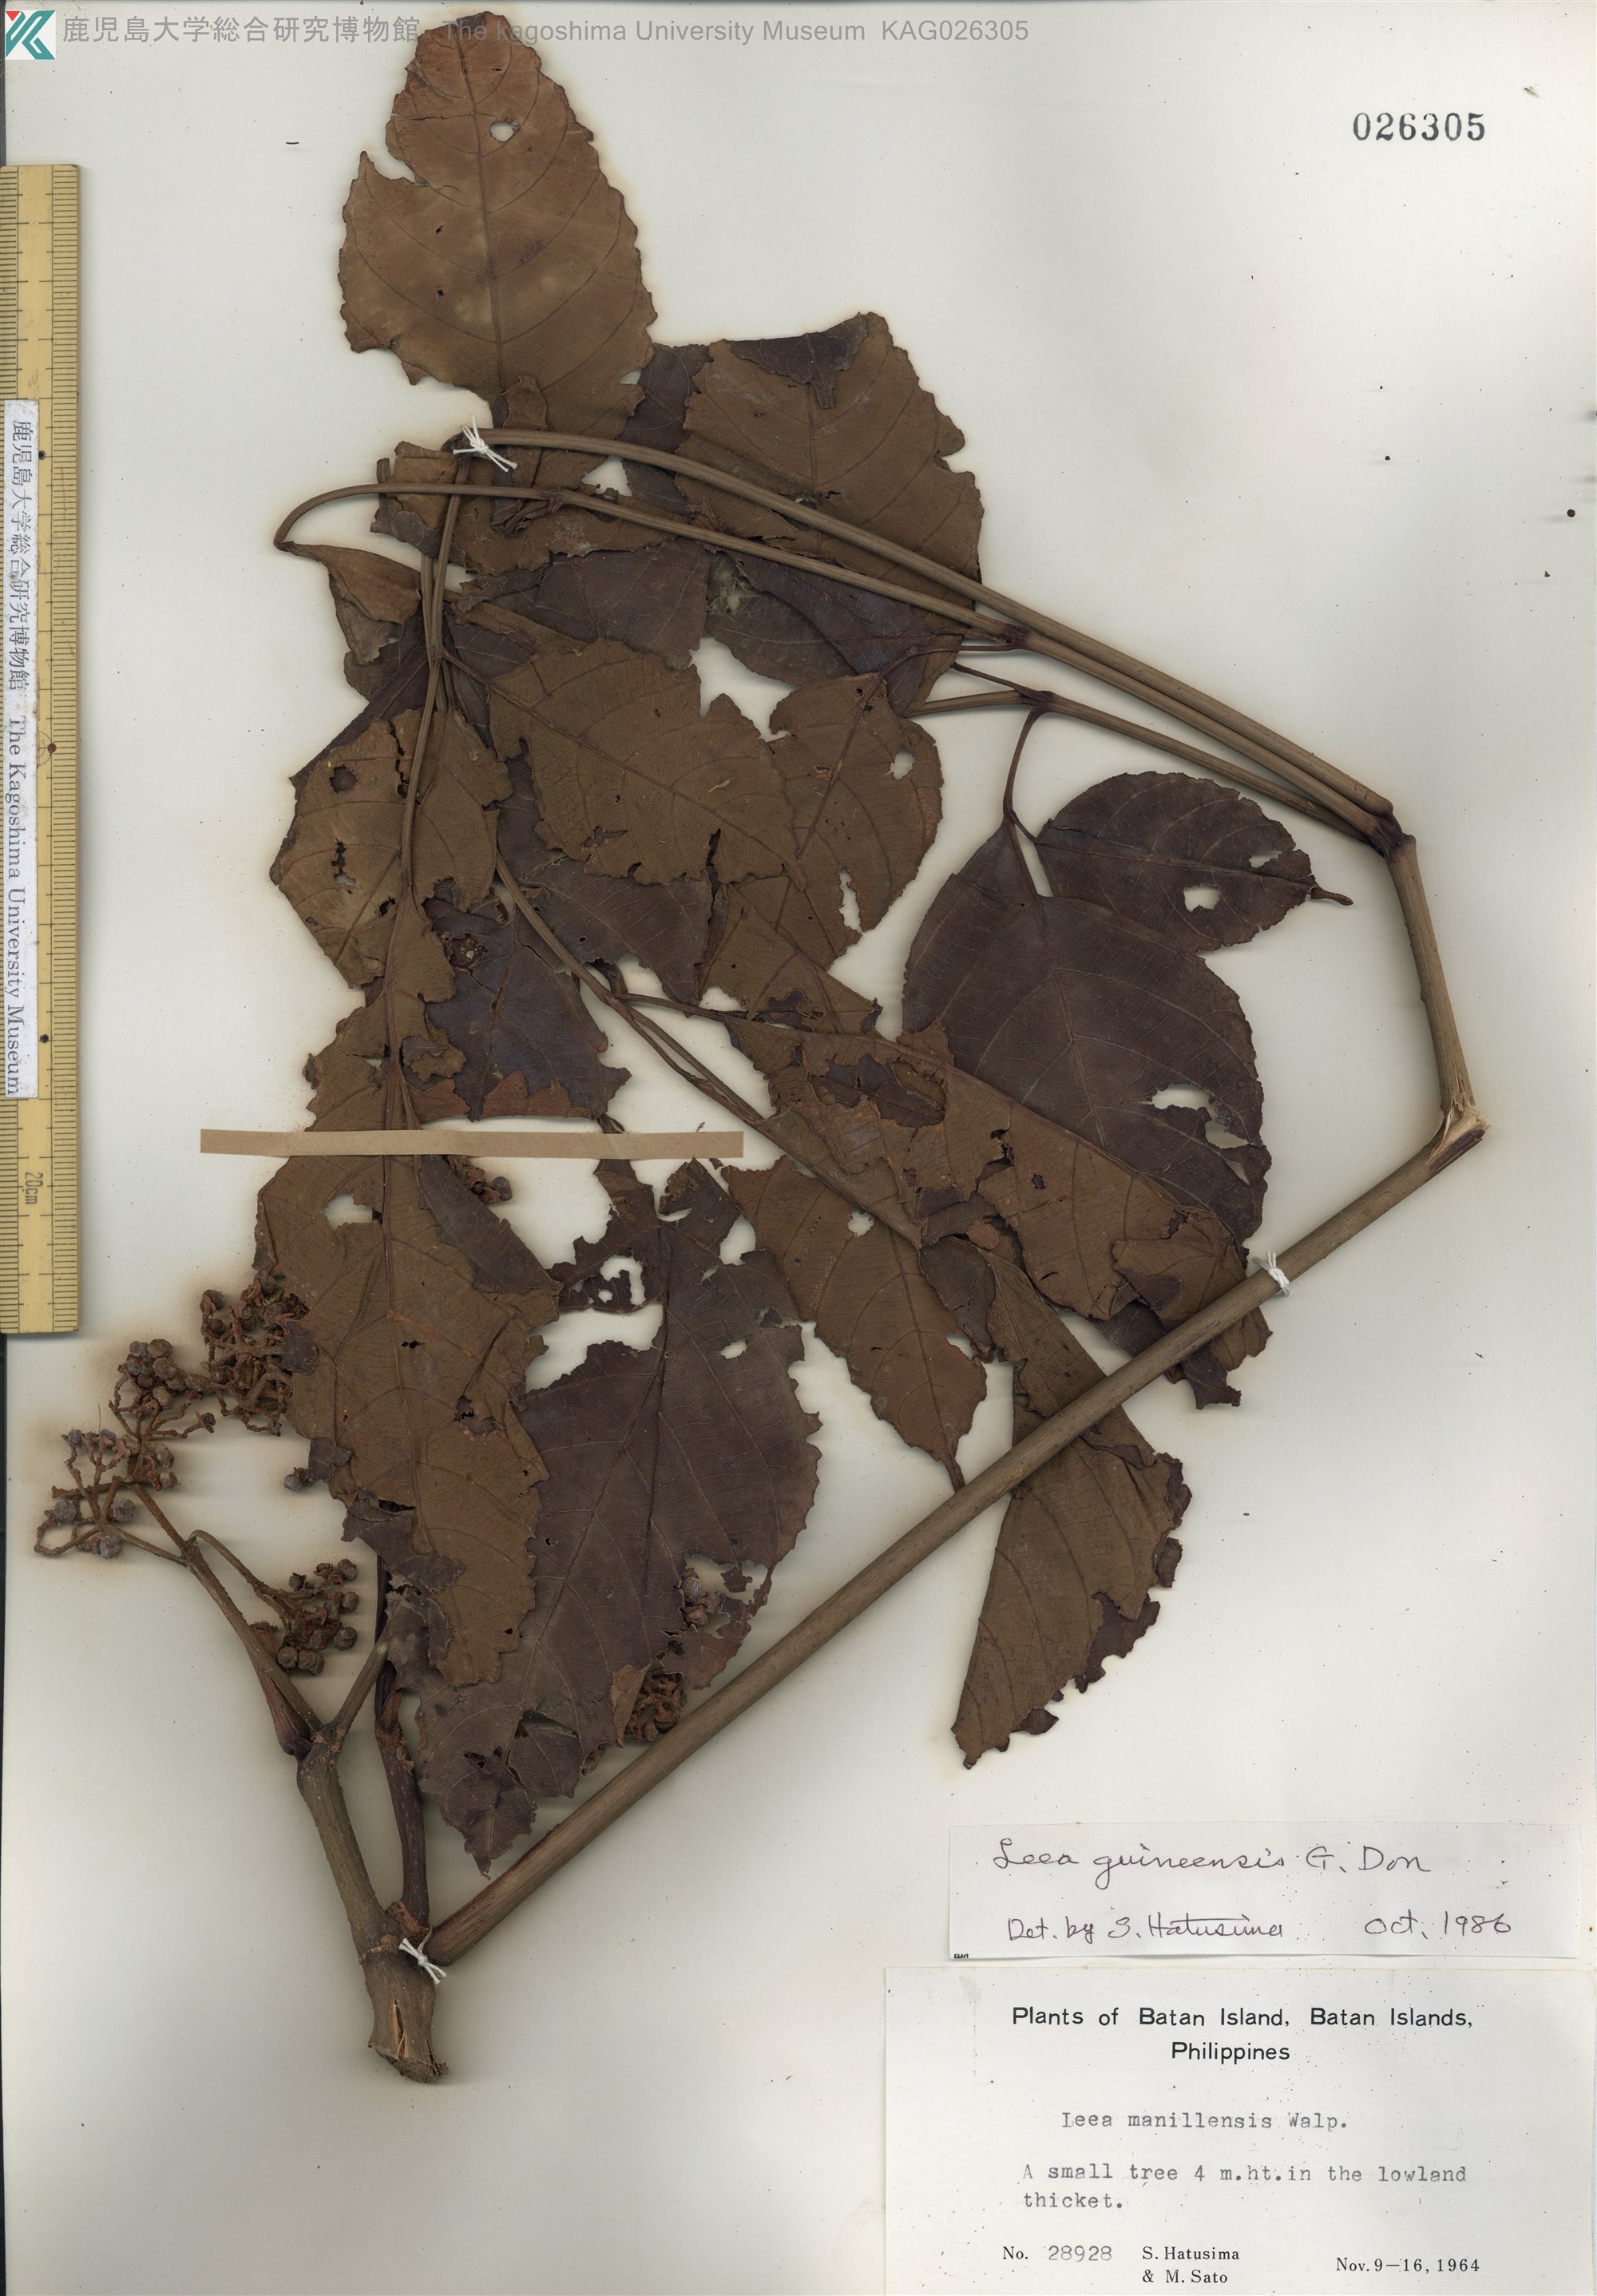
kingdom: Plantae
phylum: Tracheophyta
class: Magnoliopsida
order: Vitales
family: Vitaceae
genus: Leea
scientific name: Leea guineensis
